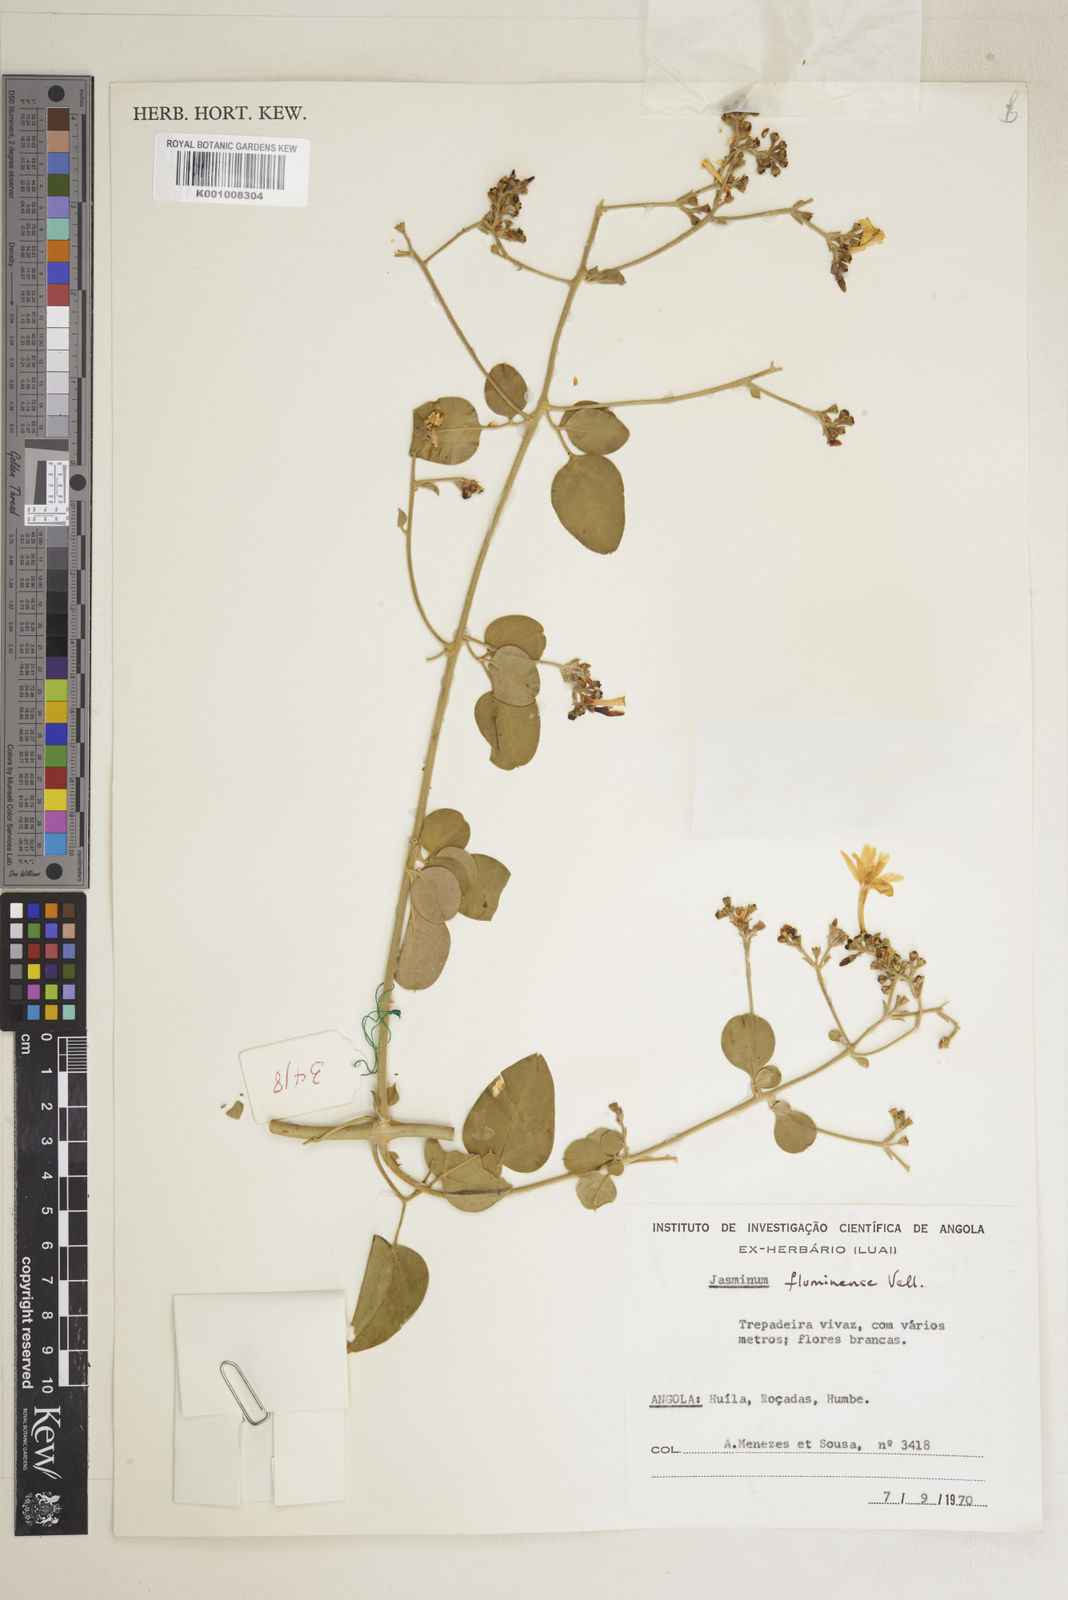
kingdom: Plantae
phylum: Tracheophyta
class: Magnoliopsida
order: Lamiales
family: Oleaceae
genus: Jasminum
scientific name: Jasminum fluminense
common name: Brazilian jasmine
